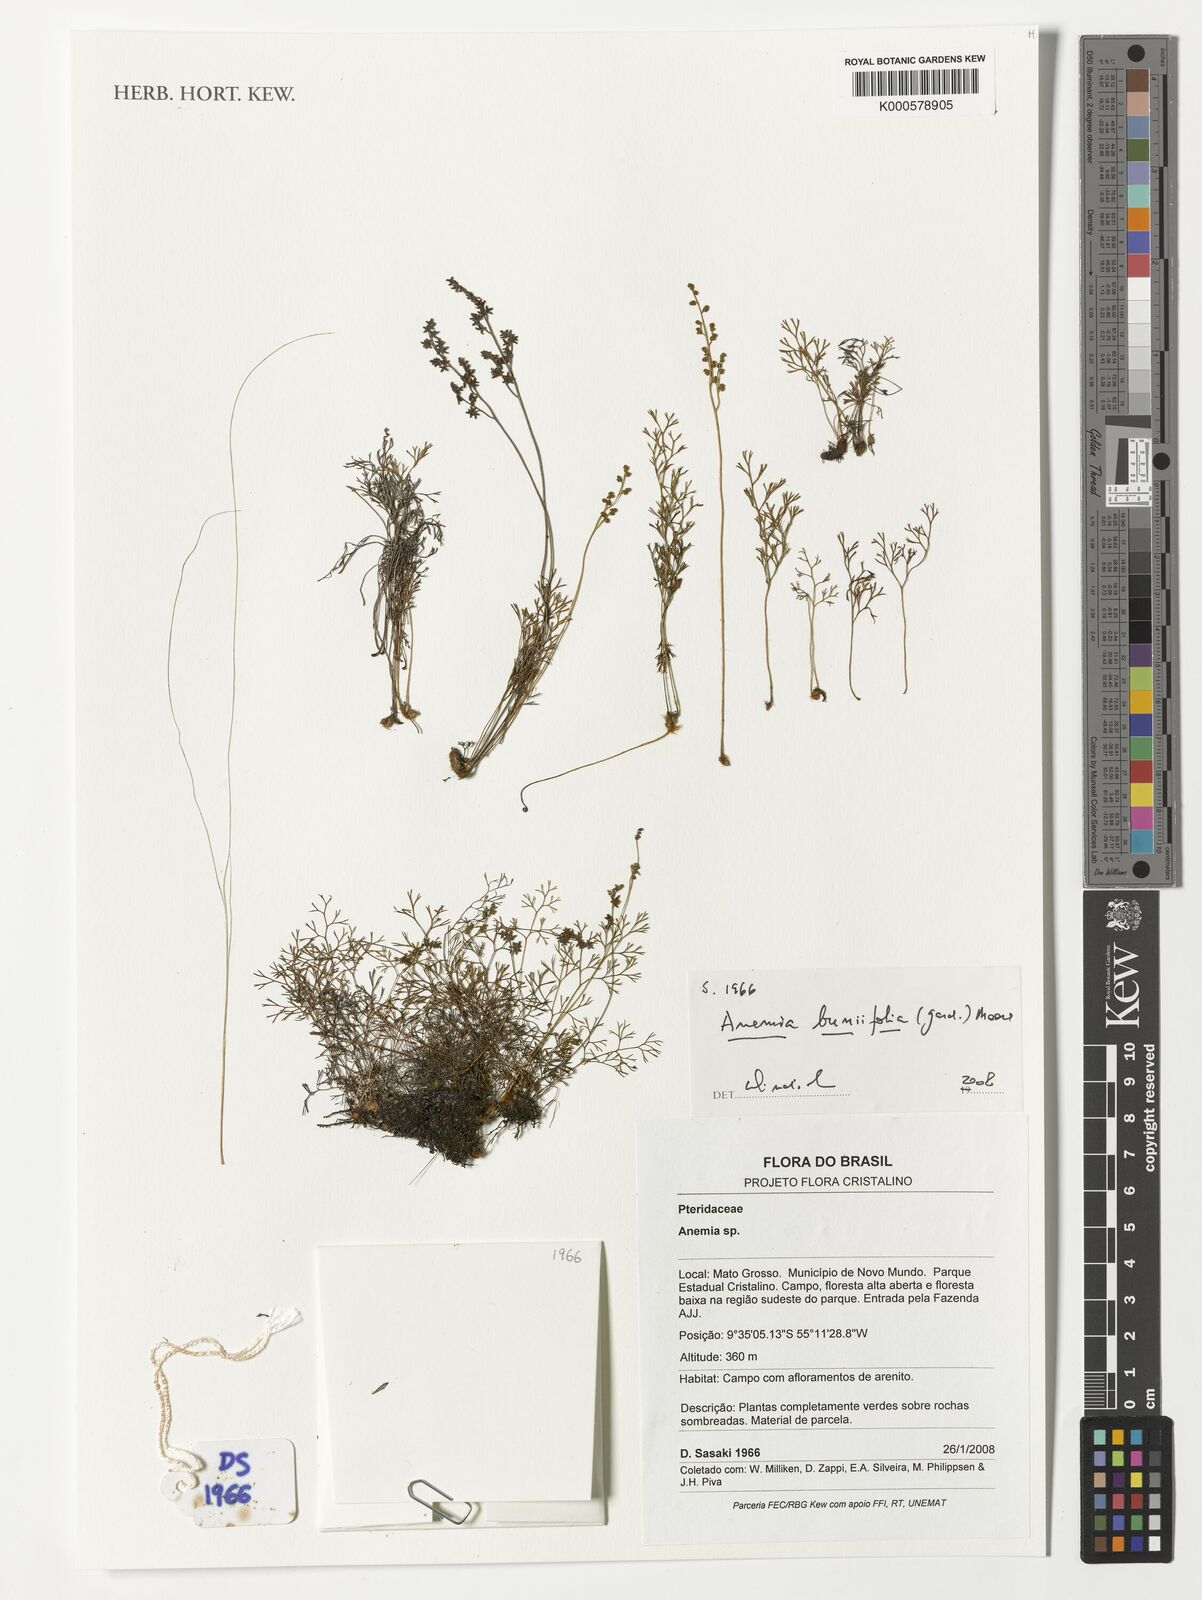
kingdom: Plantae
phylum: Tracheophyta
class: Polypodiopsida
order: Schizaeales
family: Anemiaceae
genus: Anemia
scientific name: Anemia buniifolia
